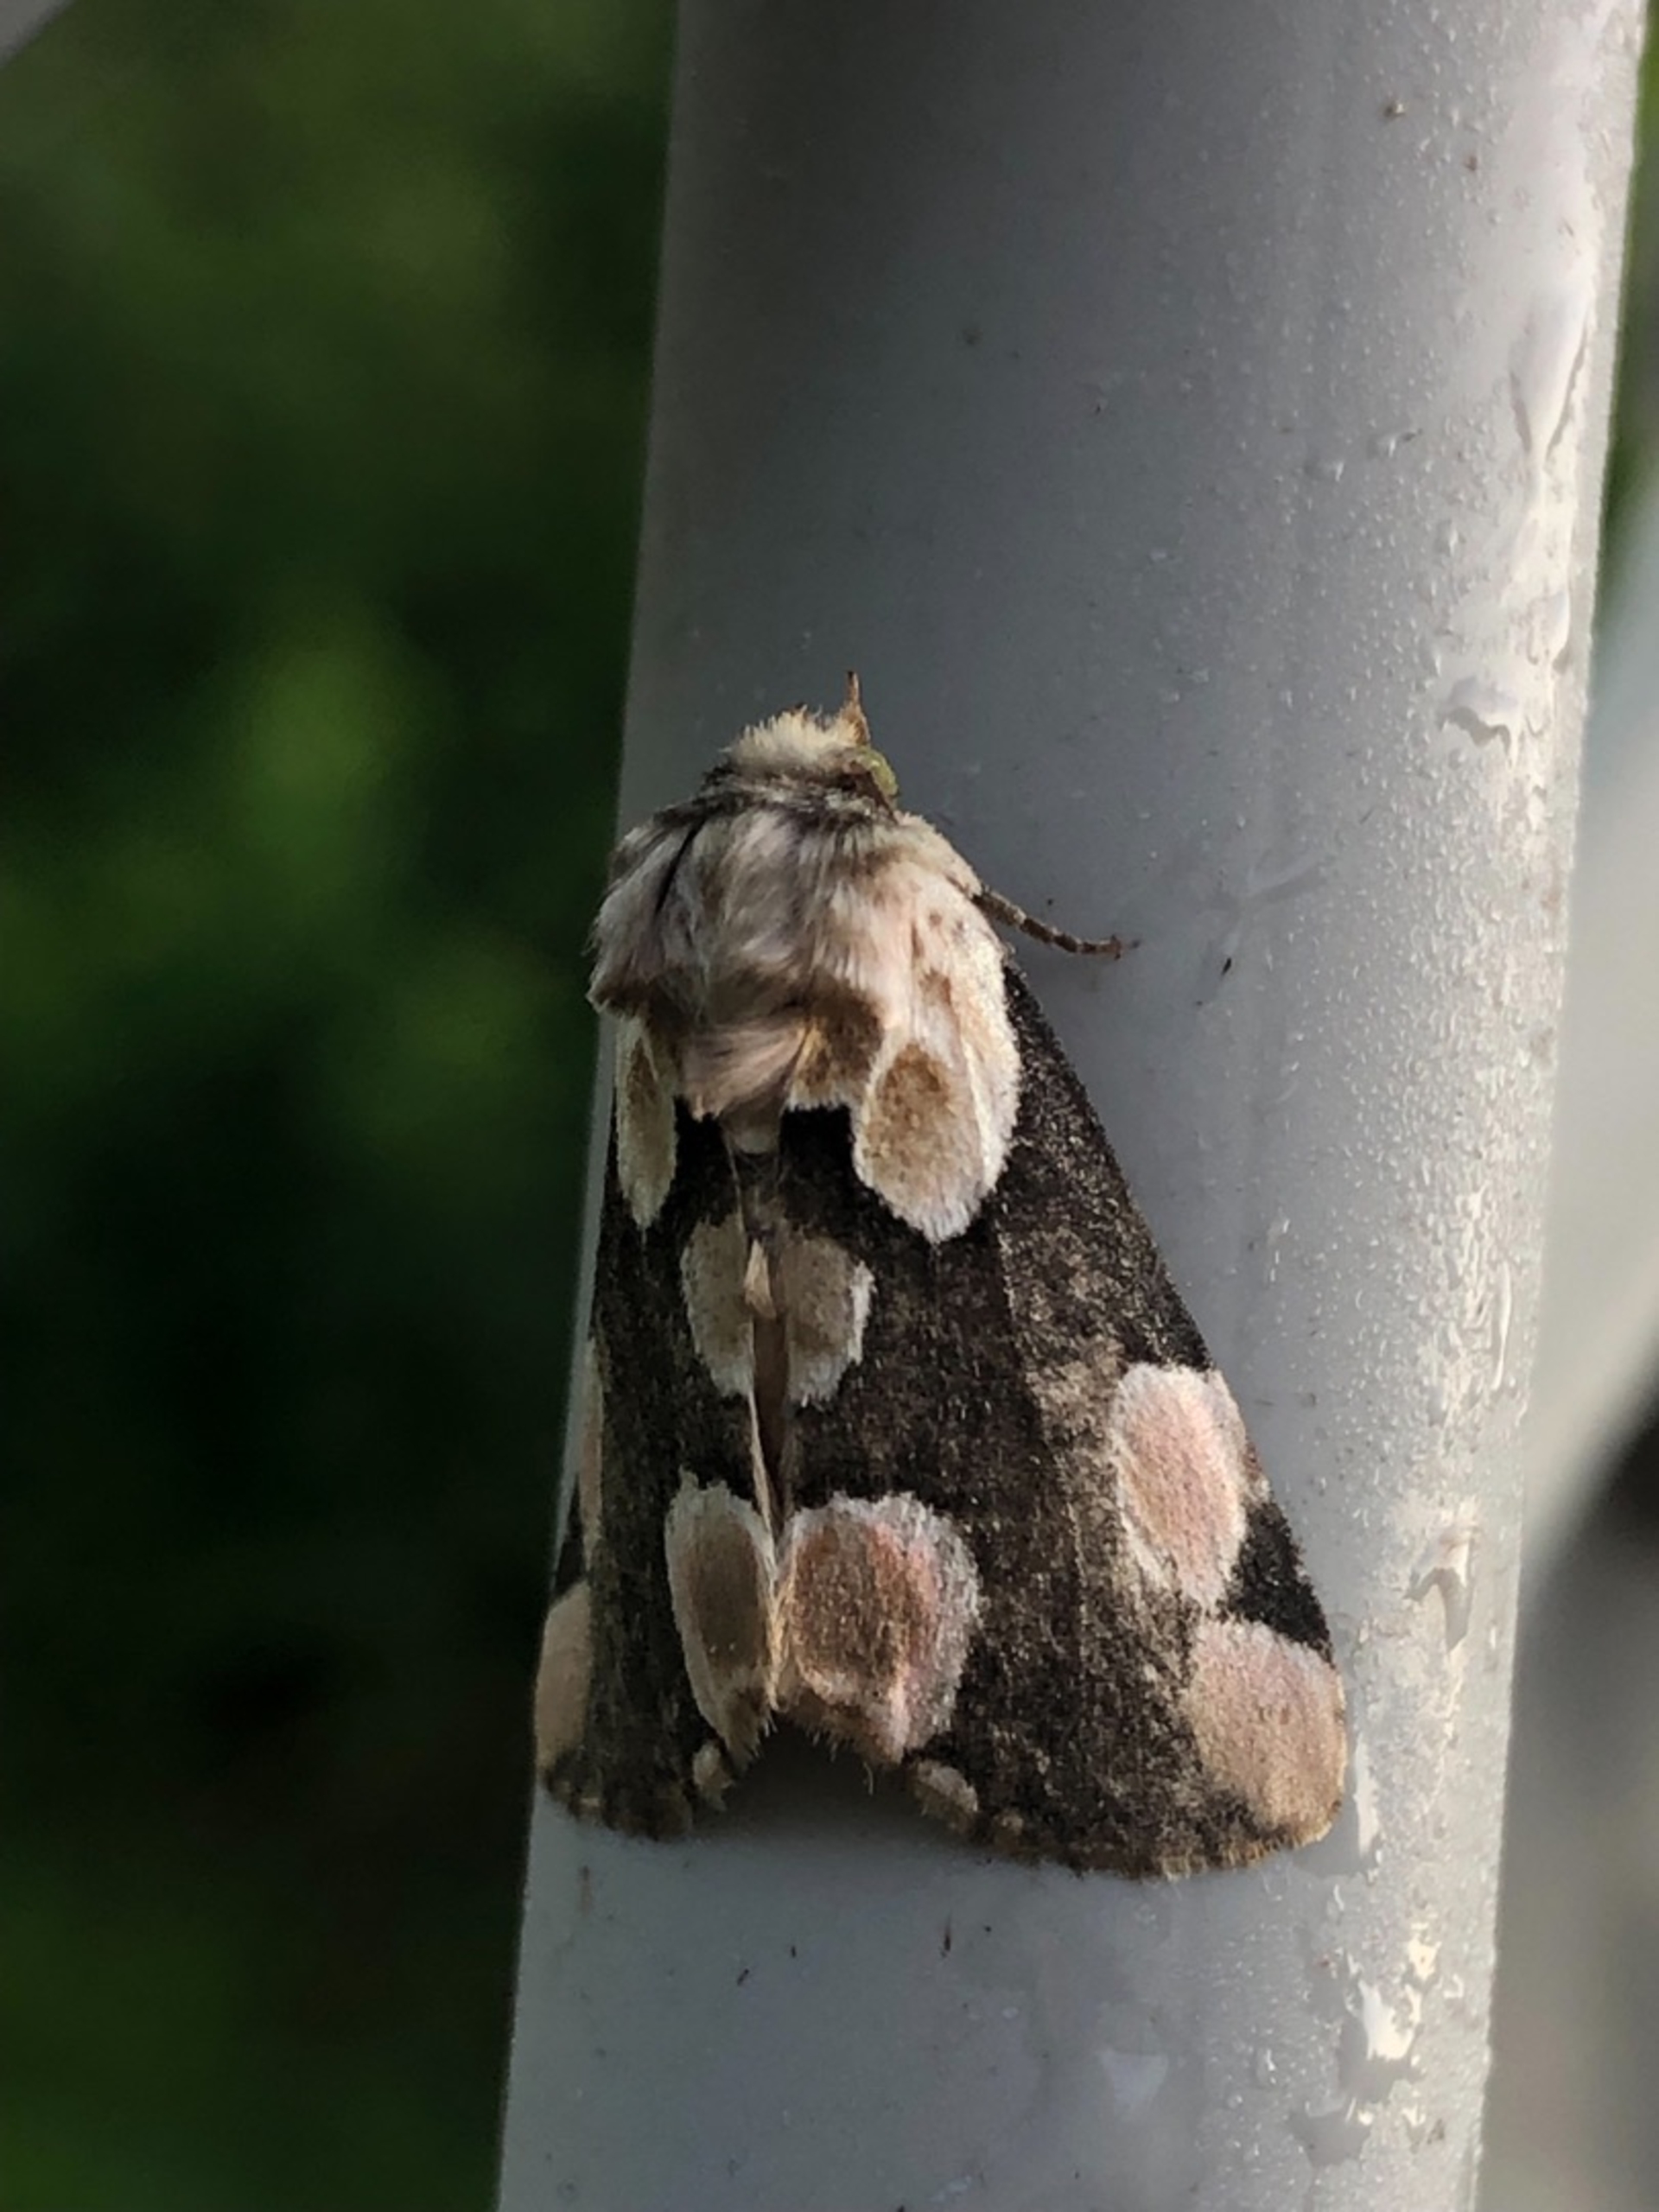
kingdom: Animalia
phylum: Arthropoda
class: Insecta
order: Lepidoptera
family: Drepanidae
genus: Thyatira
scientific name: Thyatira batis
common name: Rosenplet
